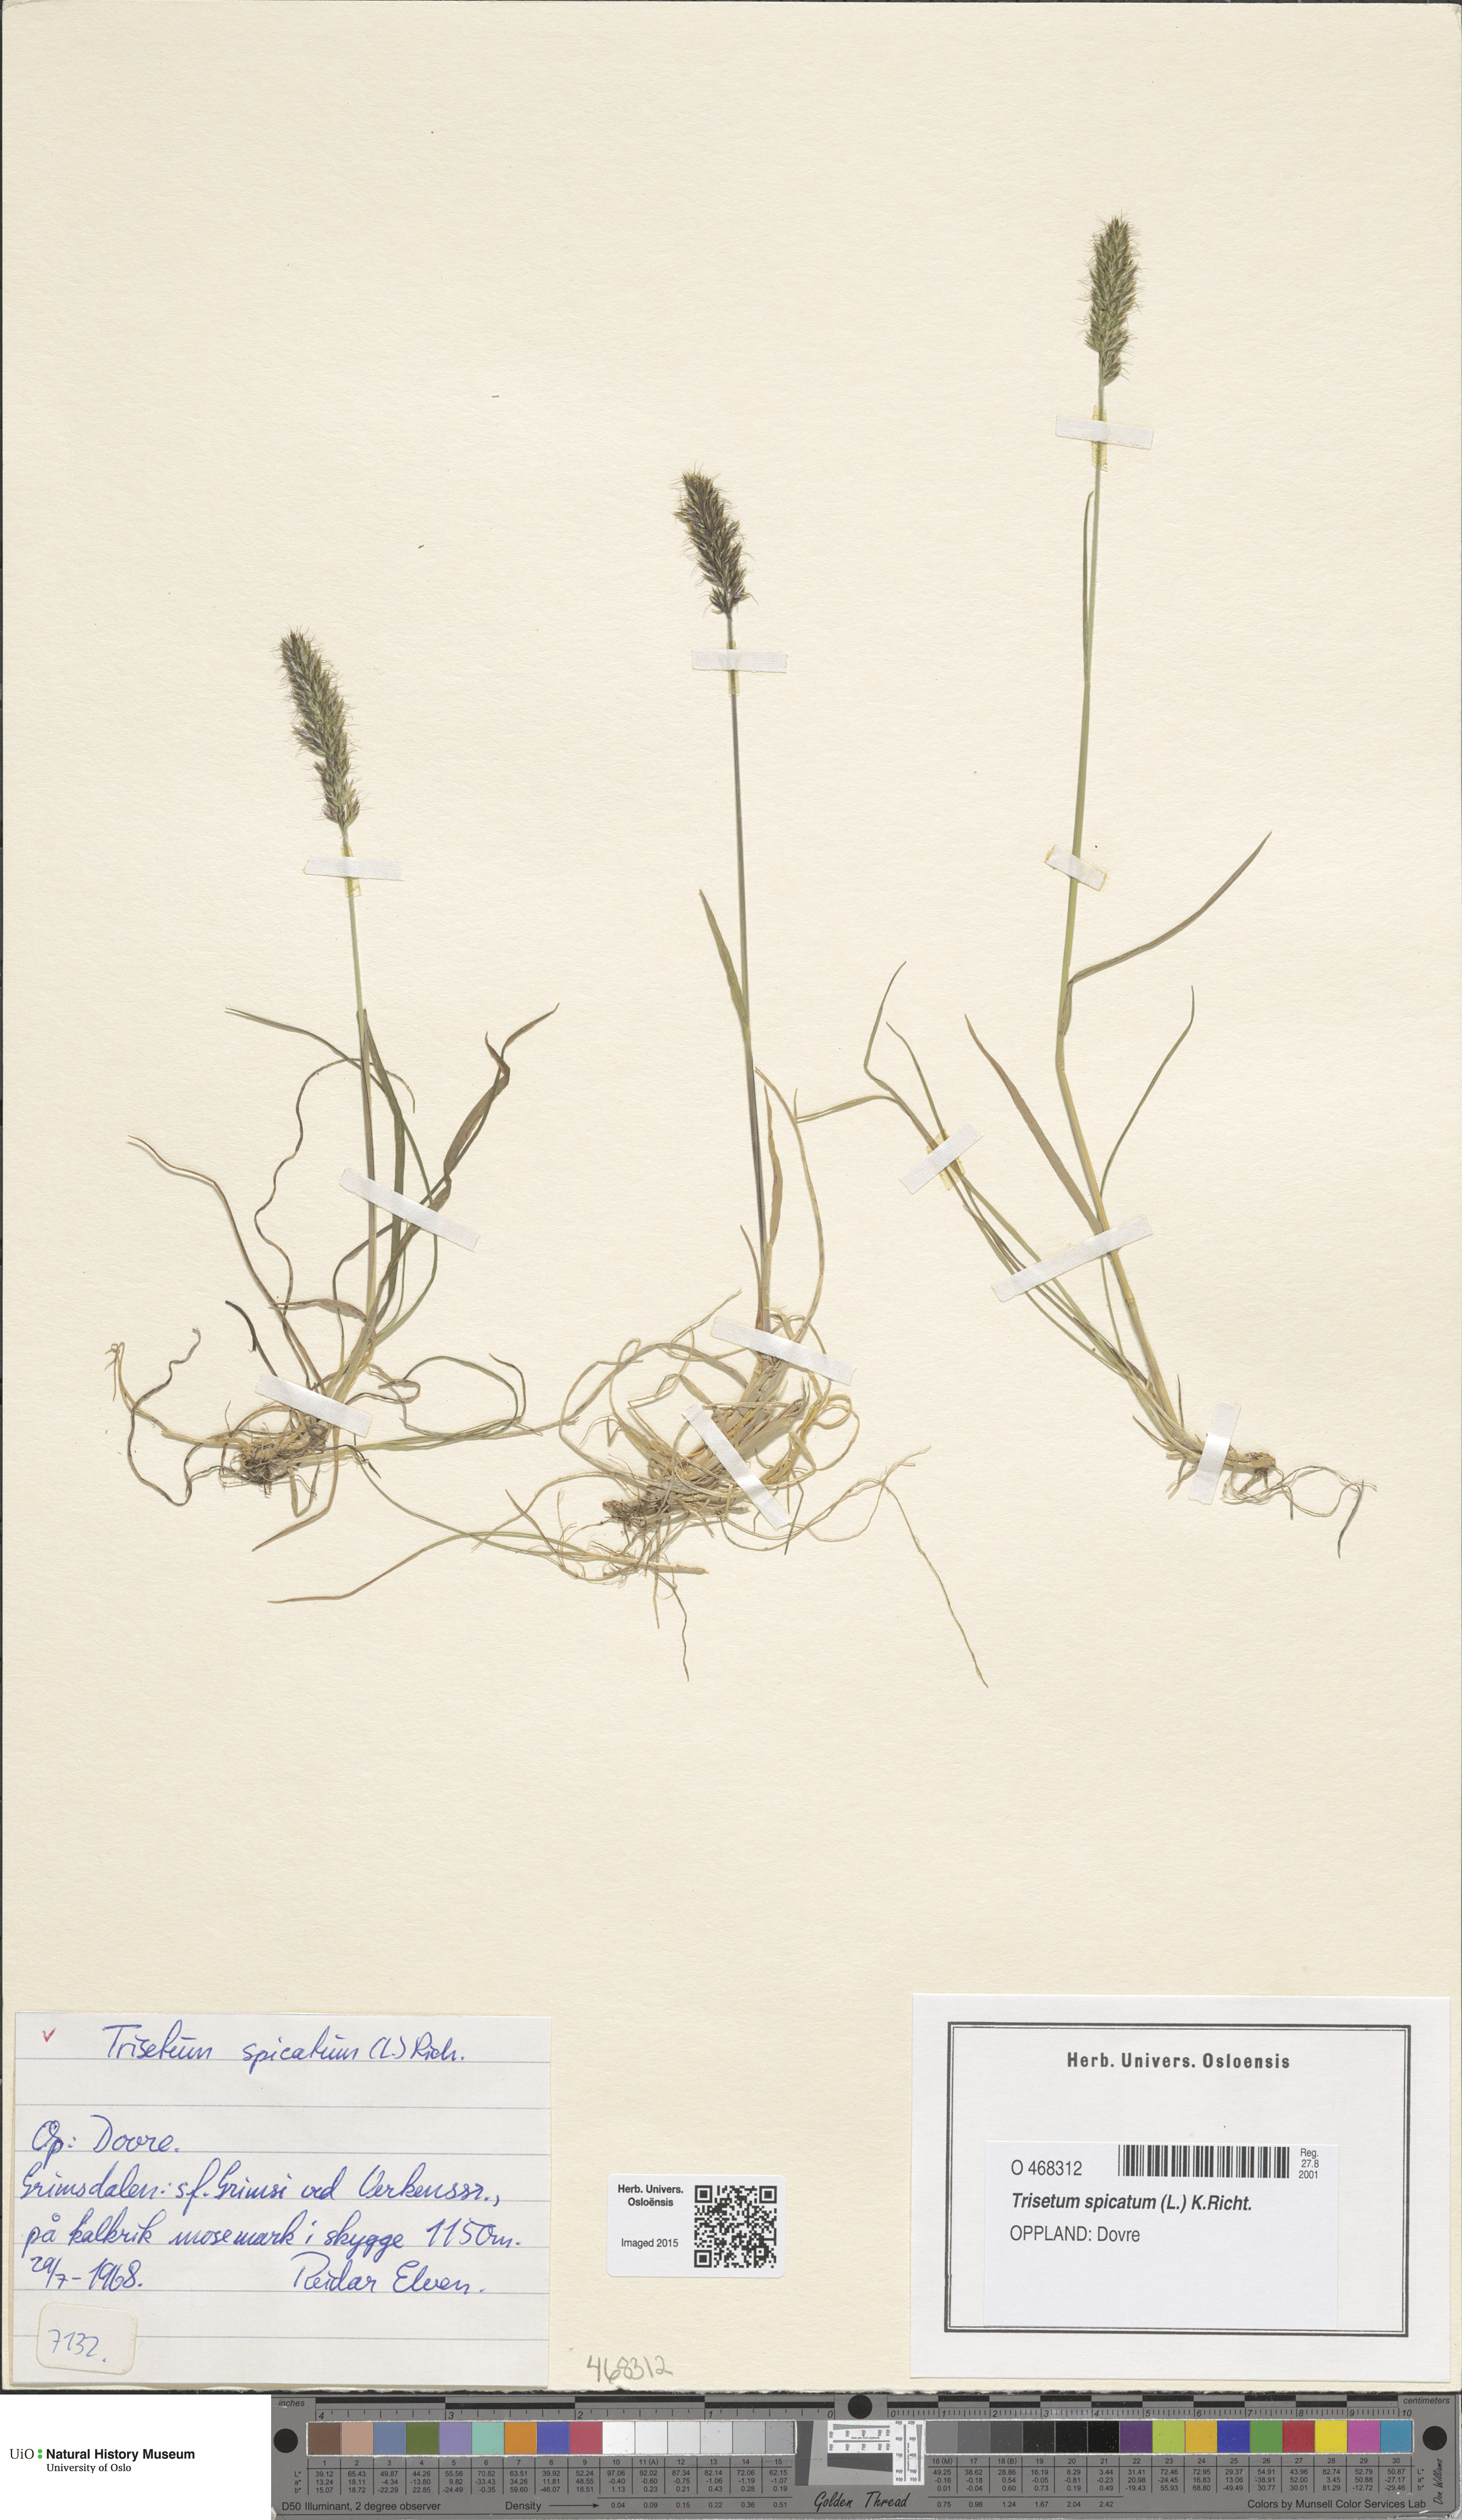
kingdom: Plantae
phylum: Tracheophyta
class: Liliopsida
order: Poales
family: Poaceae
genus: Koeleria
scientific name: Koeleria spicata
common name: Mountain trisetum
